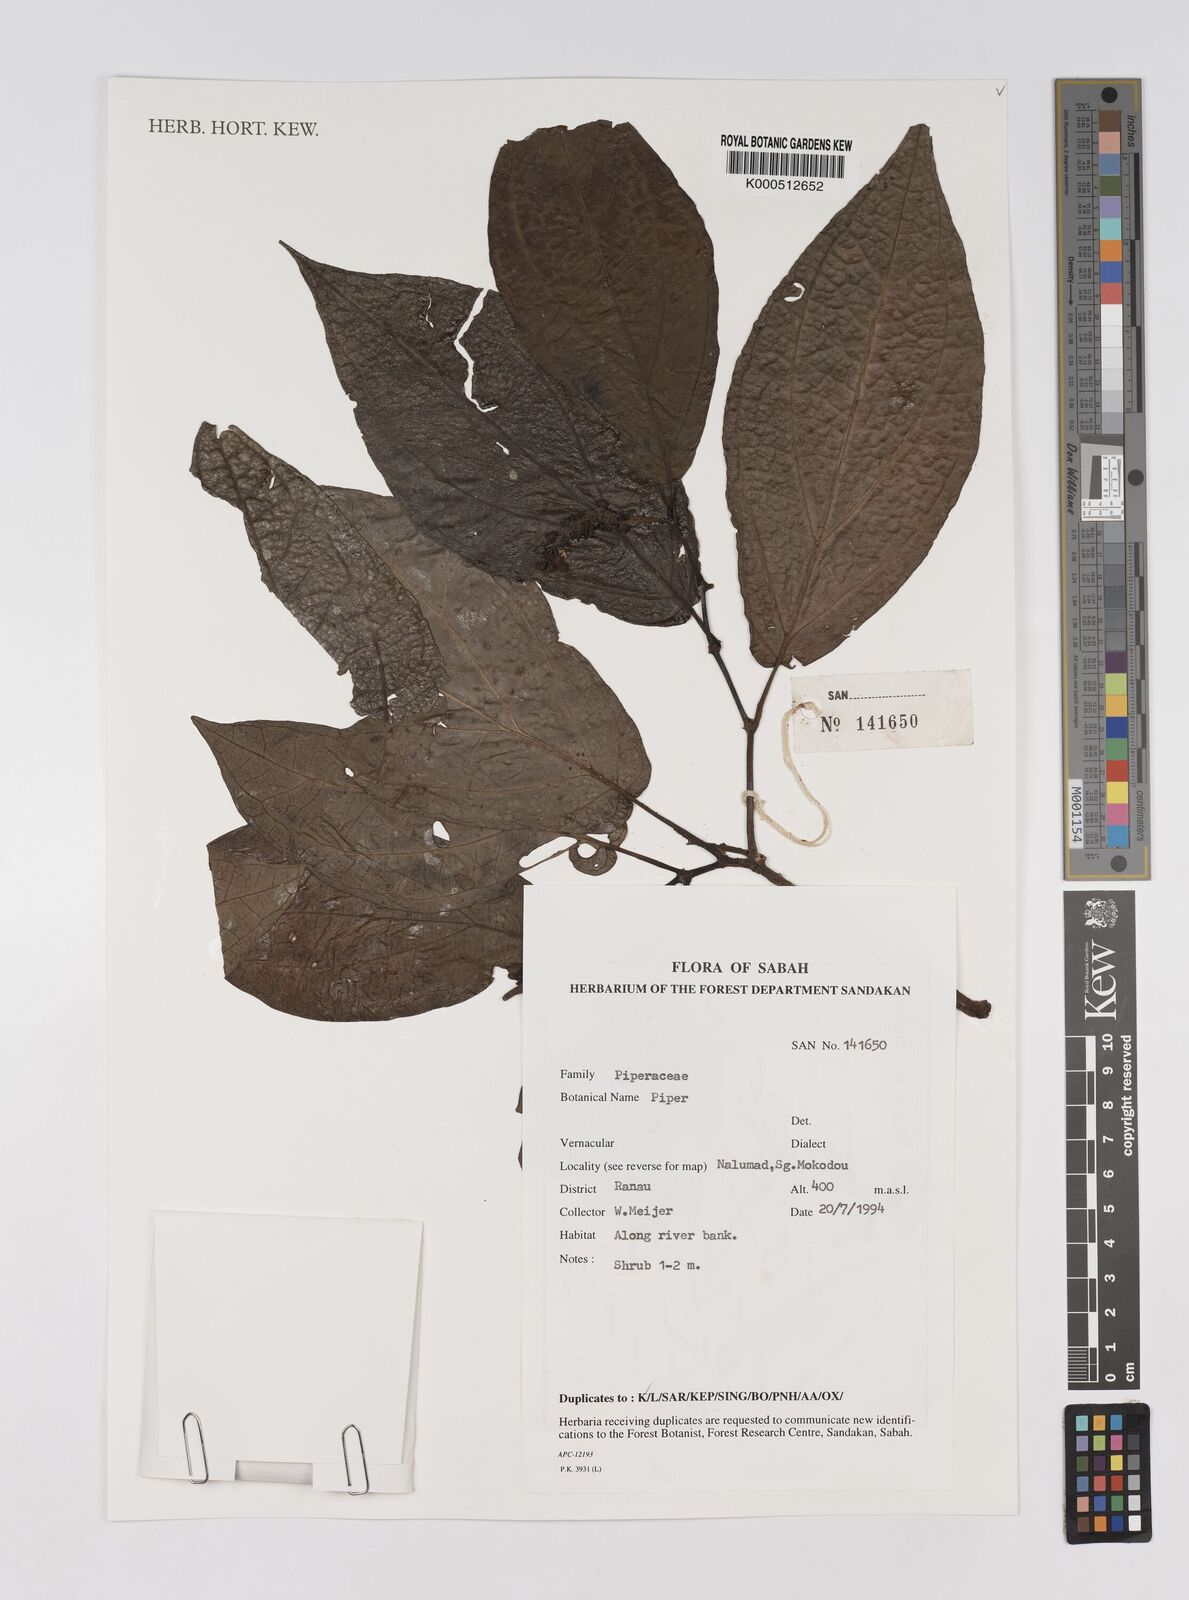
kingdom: Plantae
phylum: Tracheophyta
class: Magnoliopsida
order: Piperales
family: Piperaceae
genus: Piper
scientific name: Piper
